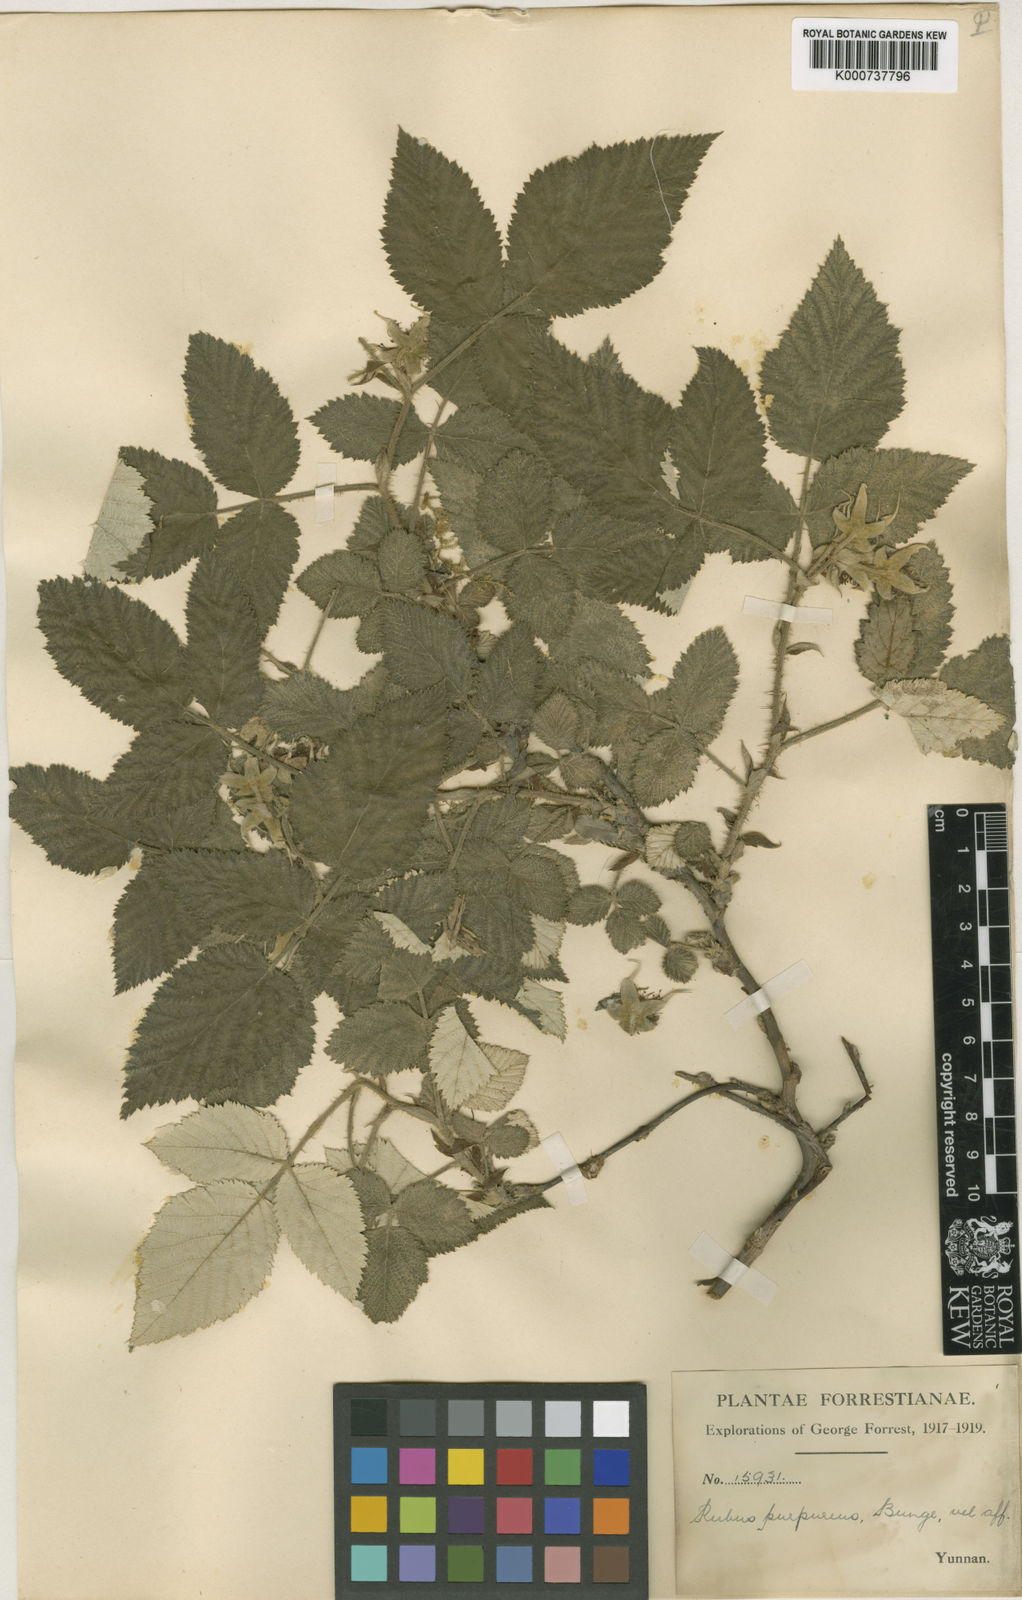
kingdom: Plantae
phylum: Tracheophyta
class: Magnoliopsida
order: Rosales
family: Rosaceae
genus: Rubus
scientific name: Rubus pedunculosus
